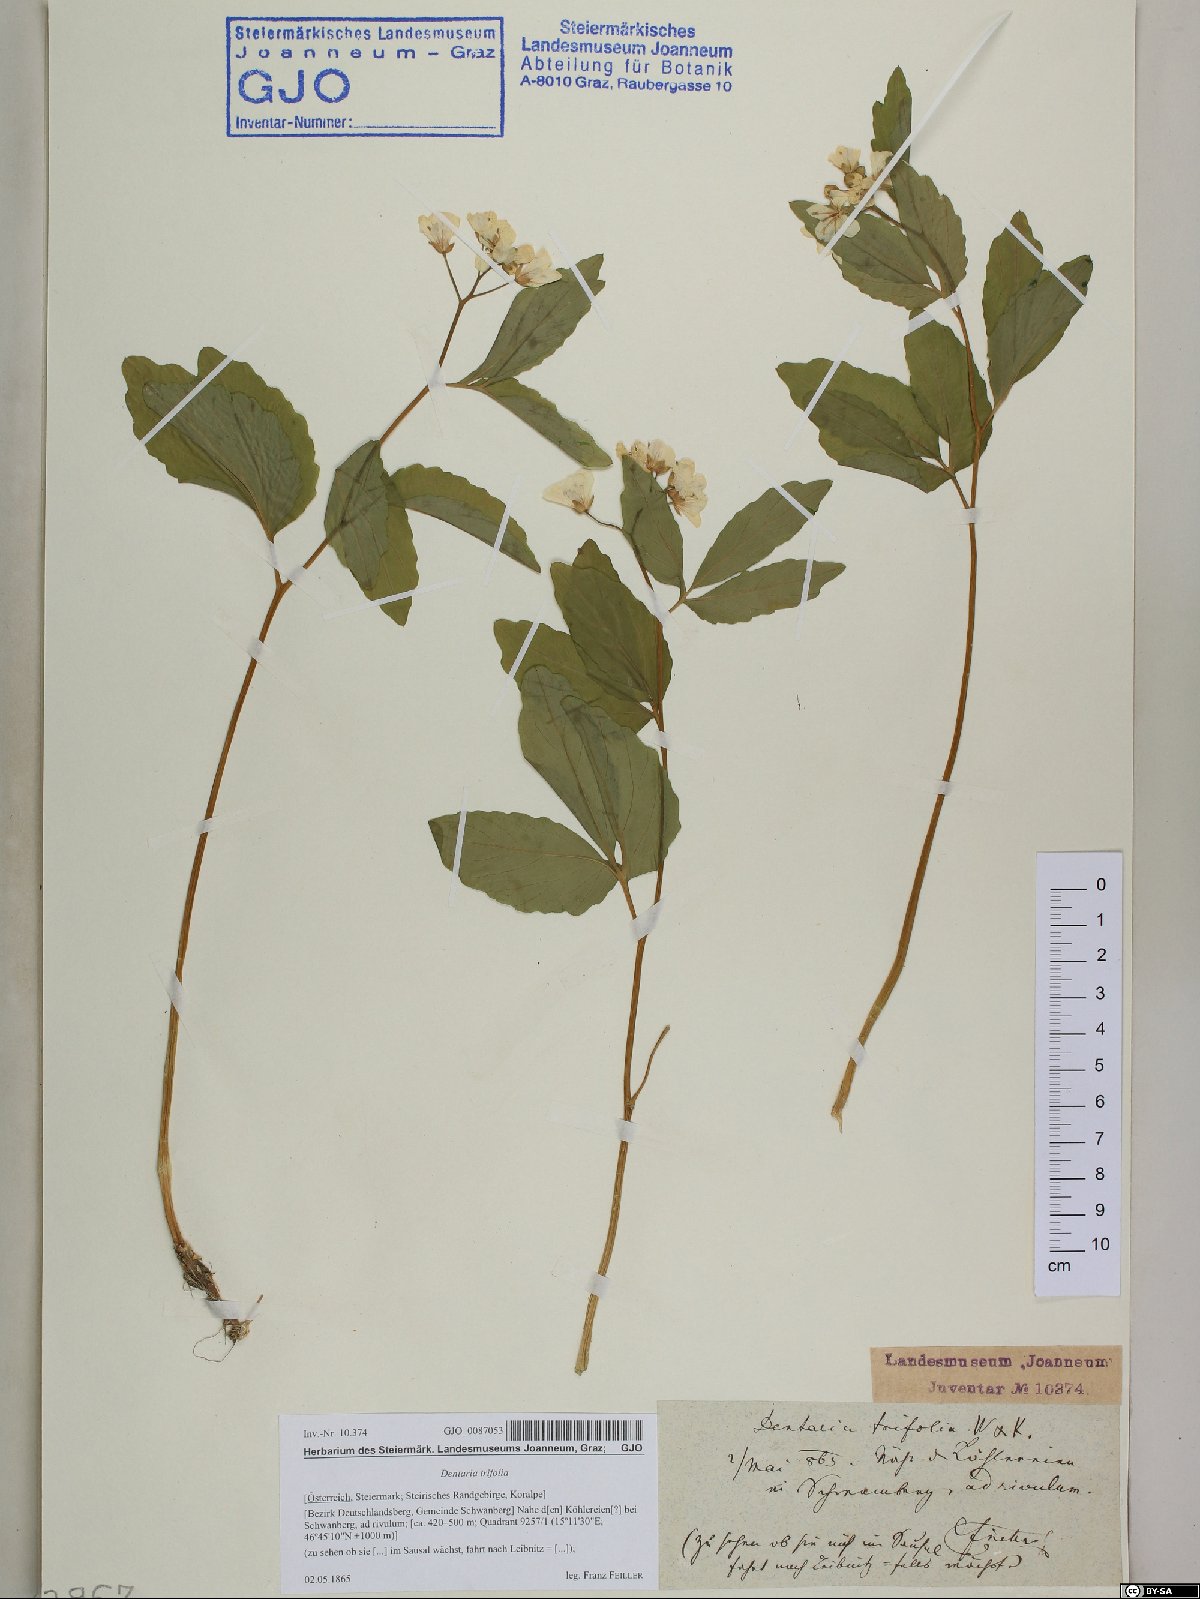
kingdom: Plantae
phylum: Tracheophyta
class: Magnoliopsida
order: Brassicales
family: Brassicaceae
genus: Cardamine
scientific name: Cardamine waldsteinii
